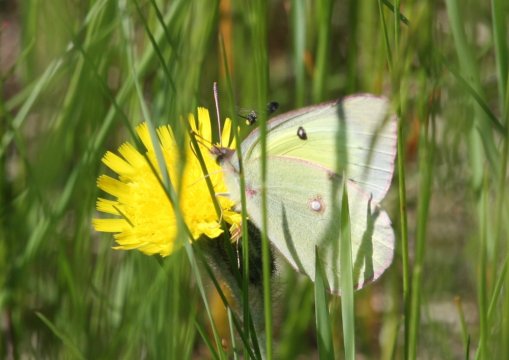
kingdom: Animalia
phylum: Arthropoda
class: Insecta
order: Lepidoptera
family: Pieridae
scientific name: Pieridae
